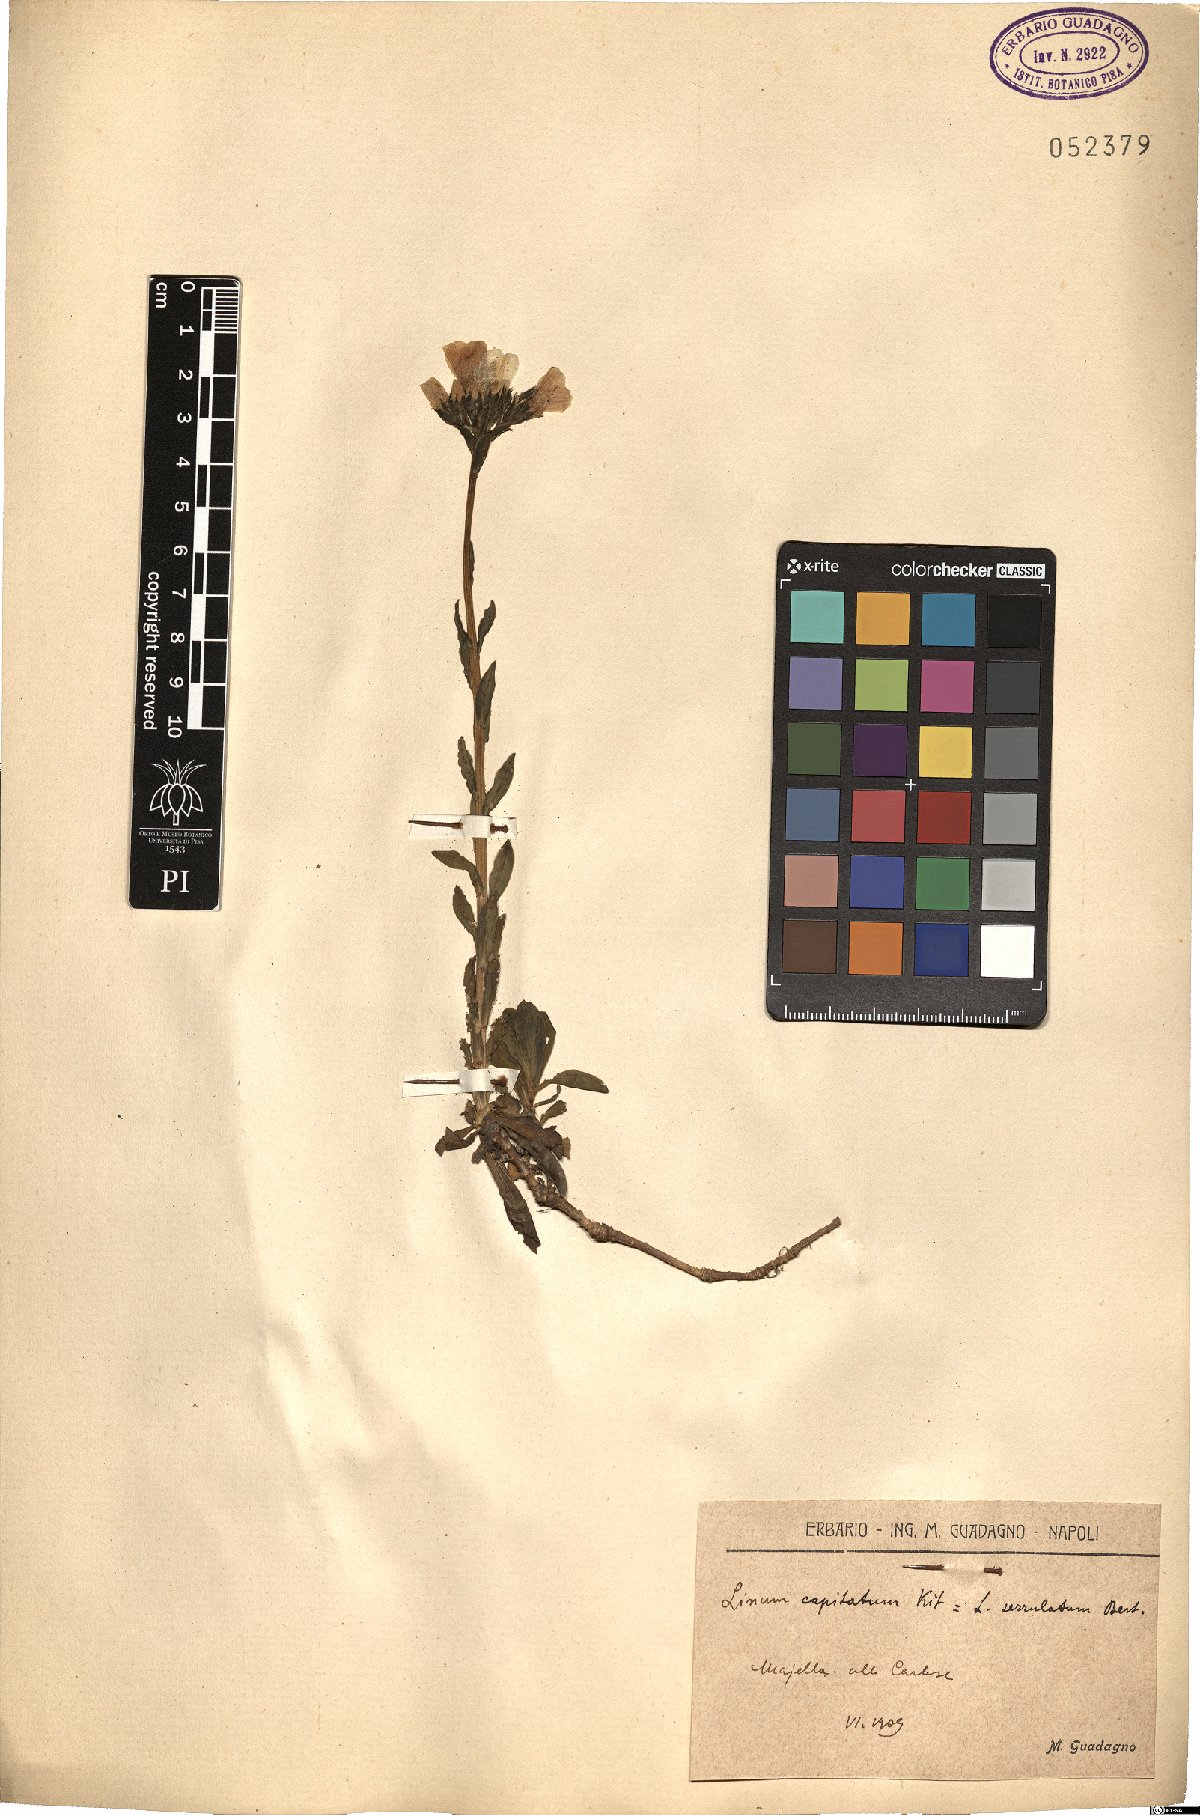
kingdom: Plantae
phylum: Tracheophyta
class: Magnoliopsida
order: Malpighiales
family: Linaceae
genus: Linum
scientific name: Linum capitatum
